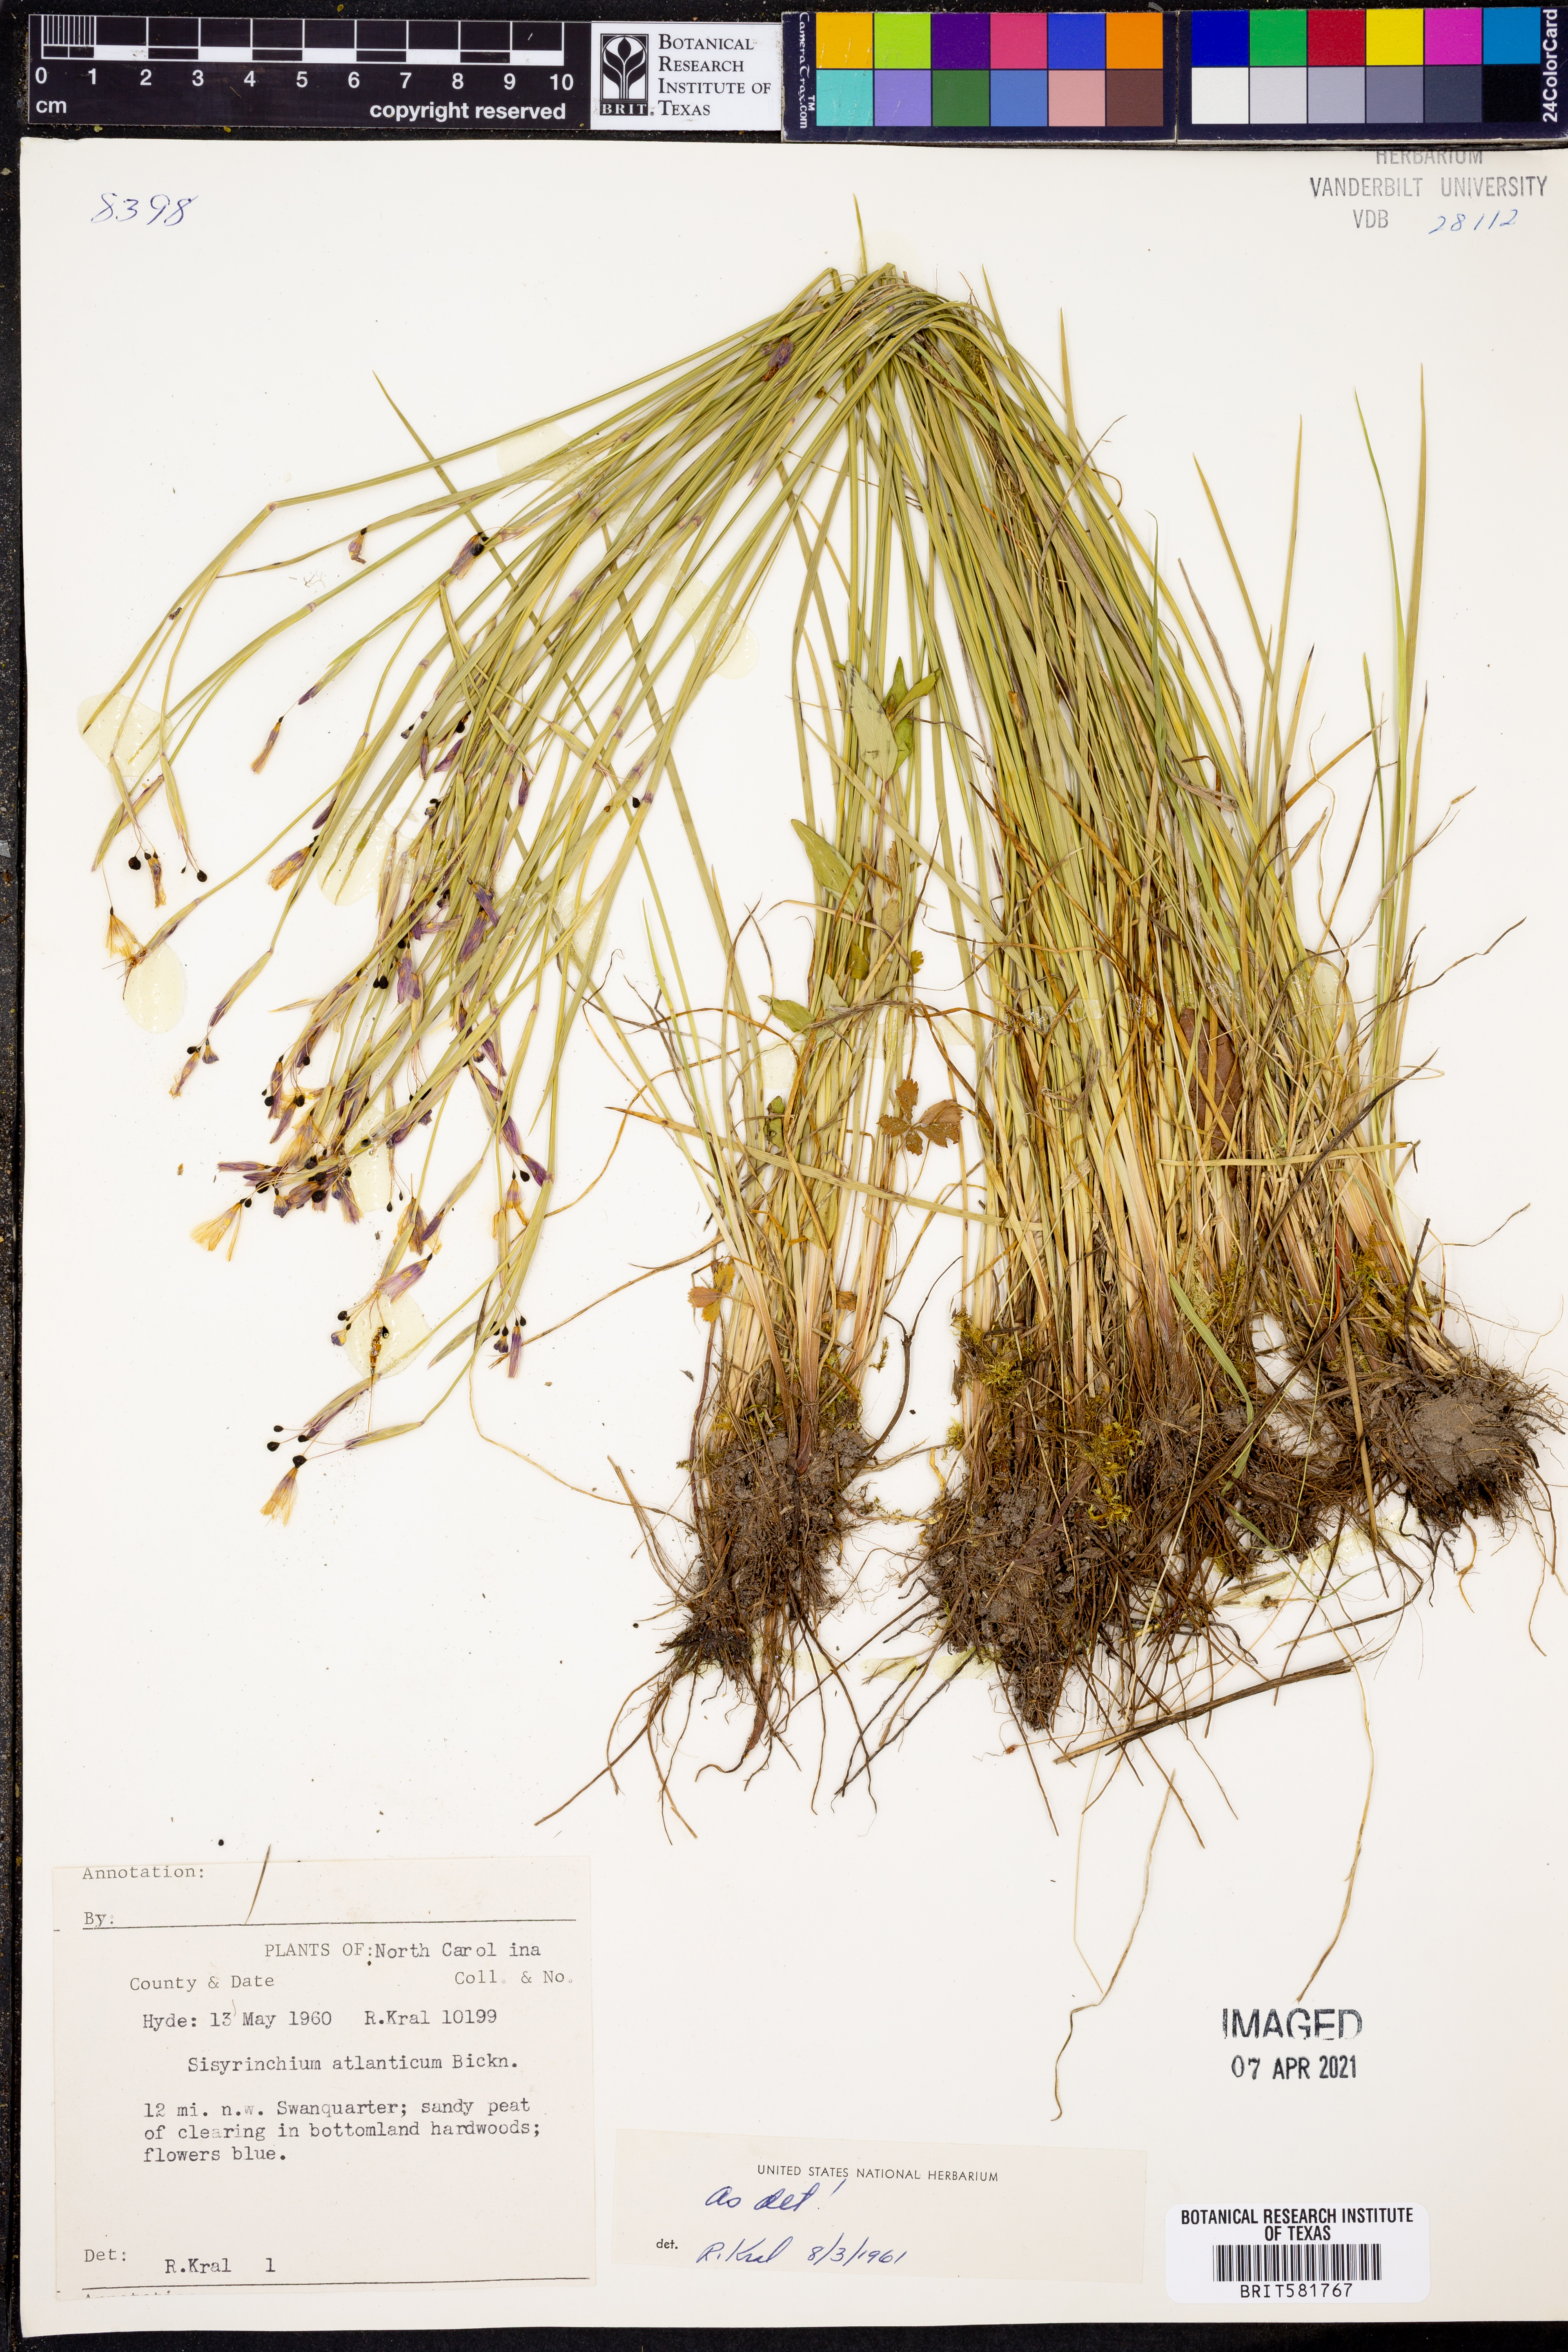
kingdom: Plantae
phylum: Tracheophyta
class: Liliopsida
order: Asparagales
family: Iridaceae
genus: Sisyrinchium
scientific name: Sisyrinchium atlanticum
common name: Eastern blue-eyed-grass
